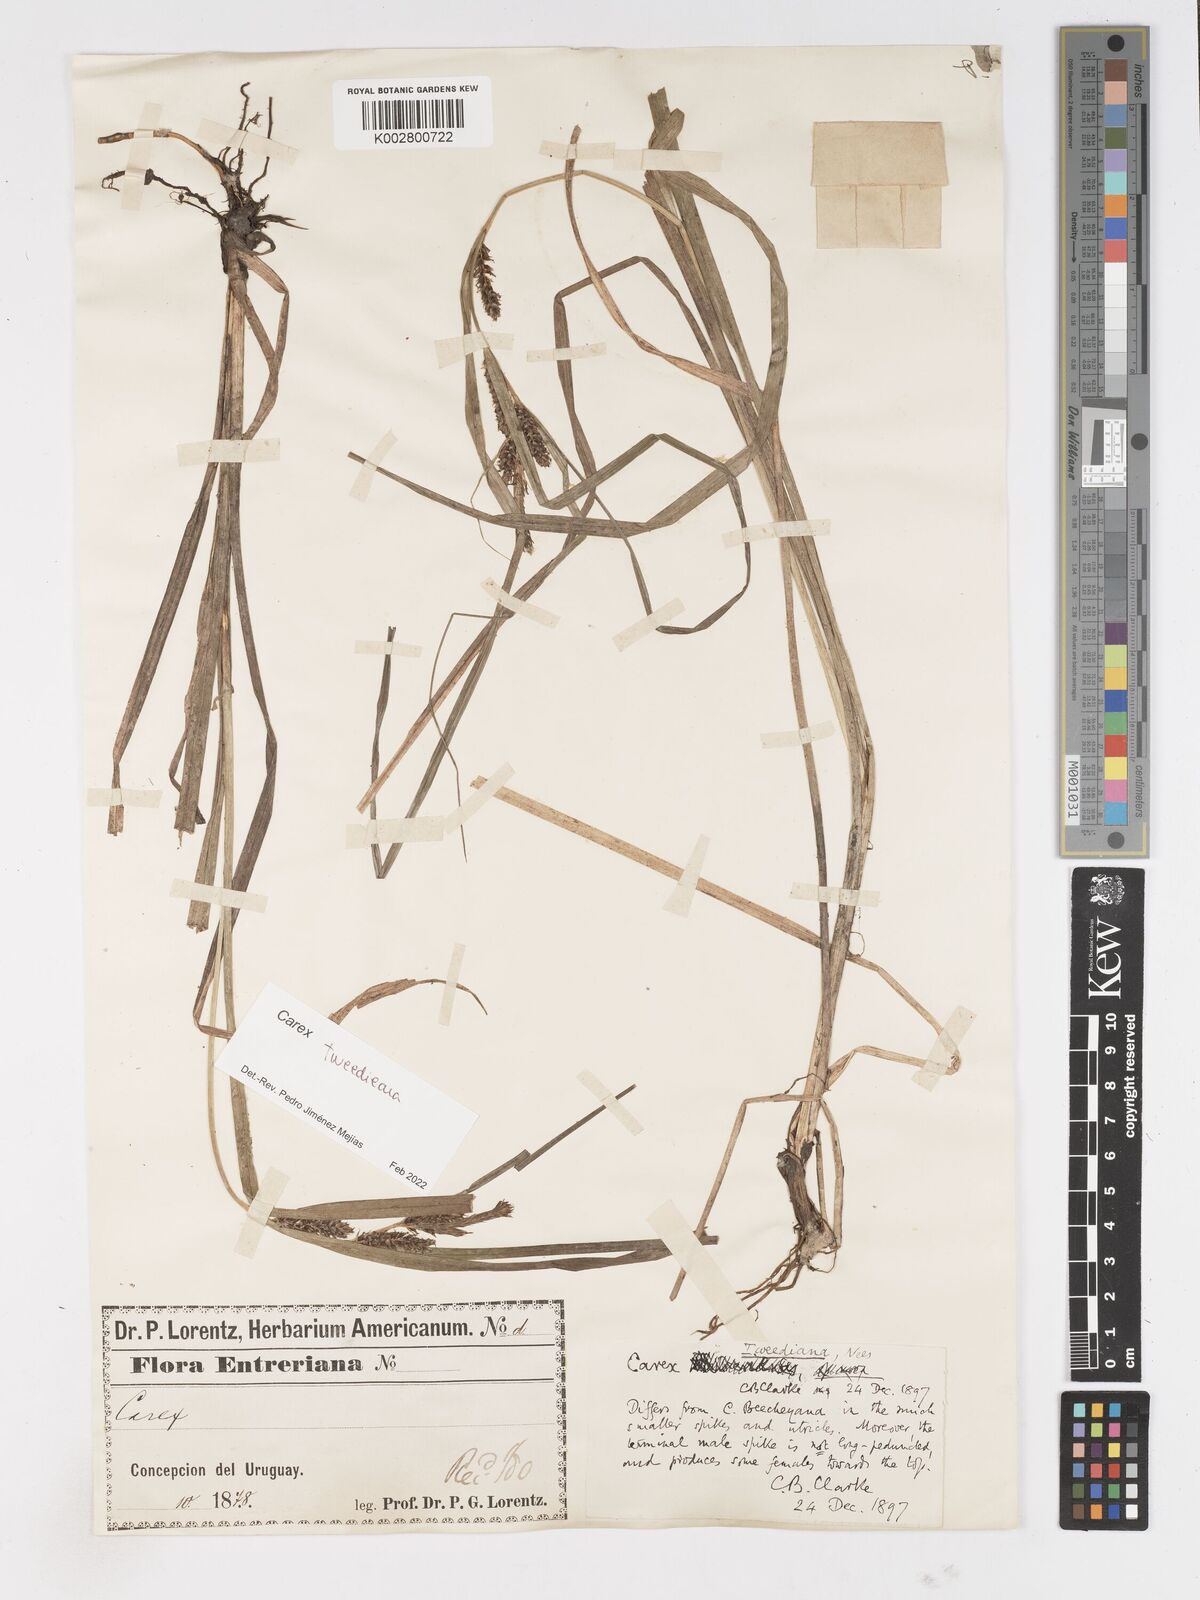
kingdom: Plantae
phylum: Tracheophyta
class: Liliopsida
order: Poales
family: Cyperaceae
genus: Carex
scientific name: Carex tweedieana
